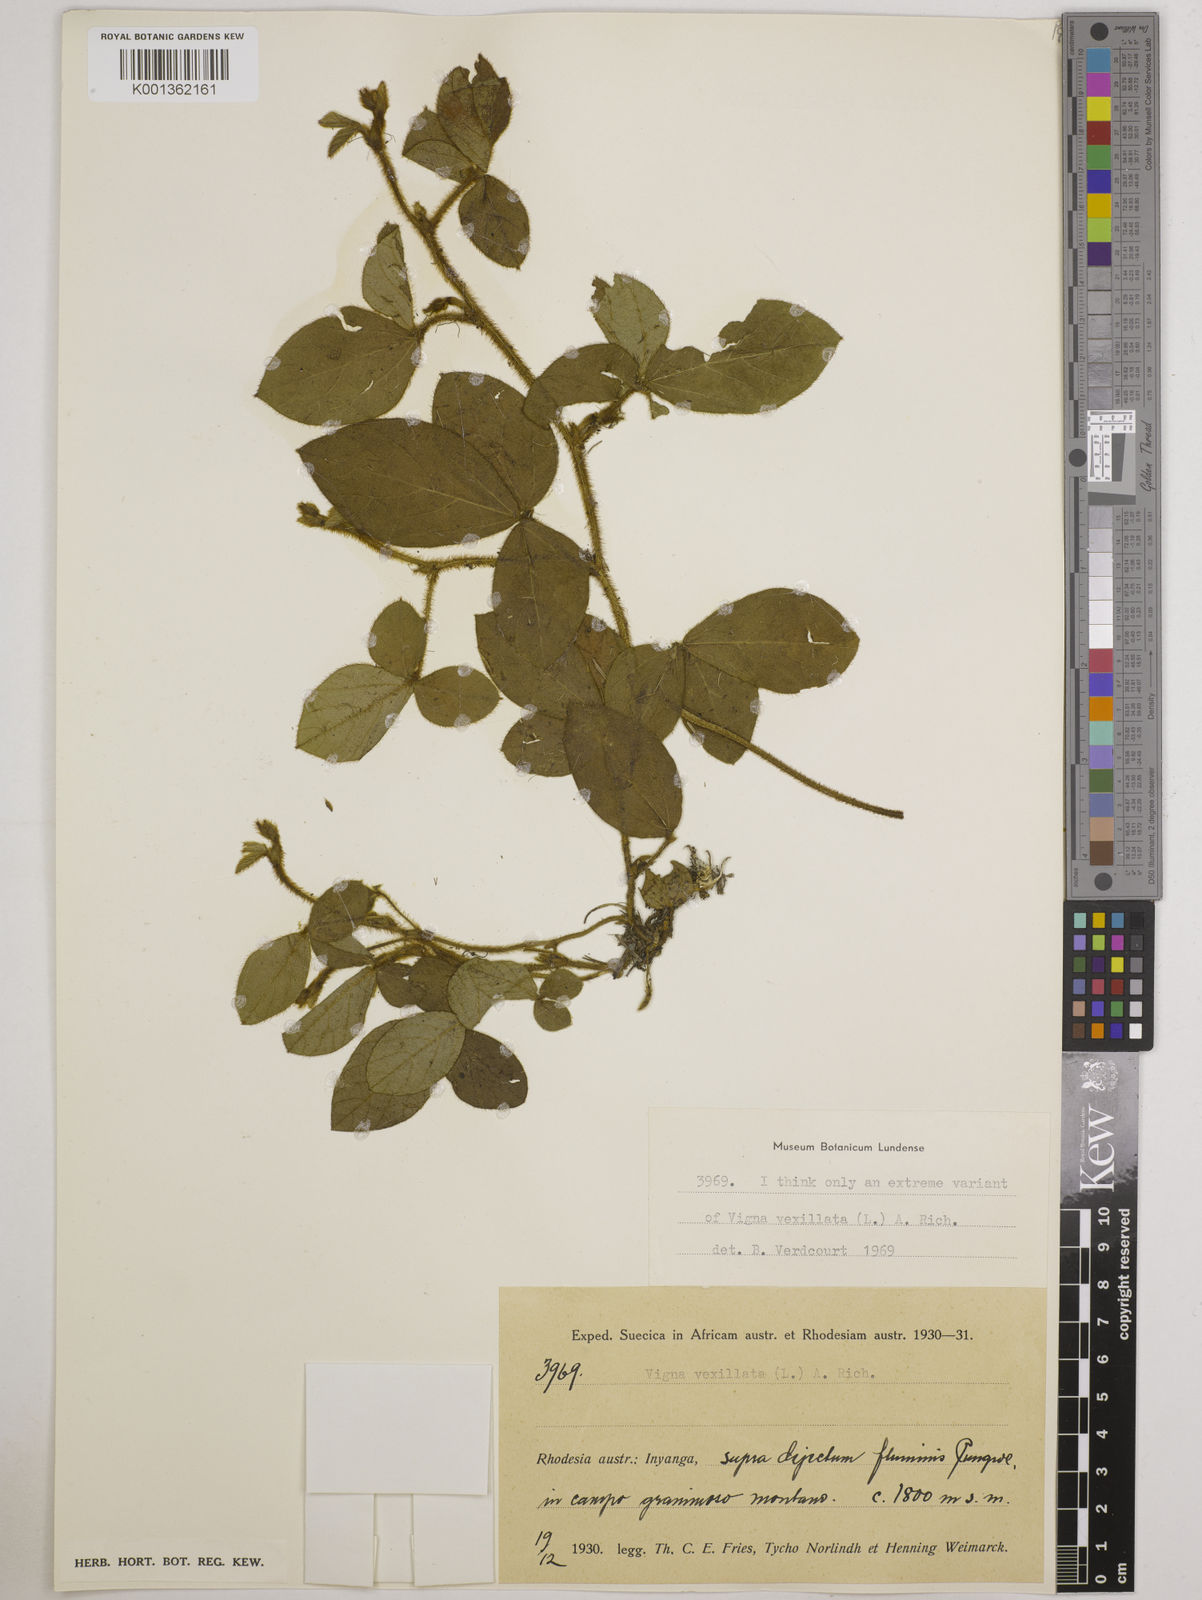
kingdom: Plantae
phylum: Tracheophyta
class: Magnoliopsida
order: Fabales
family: Fabaceae
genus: Vigna
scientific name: Vigna vexillata
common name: Zombi pea
